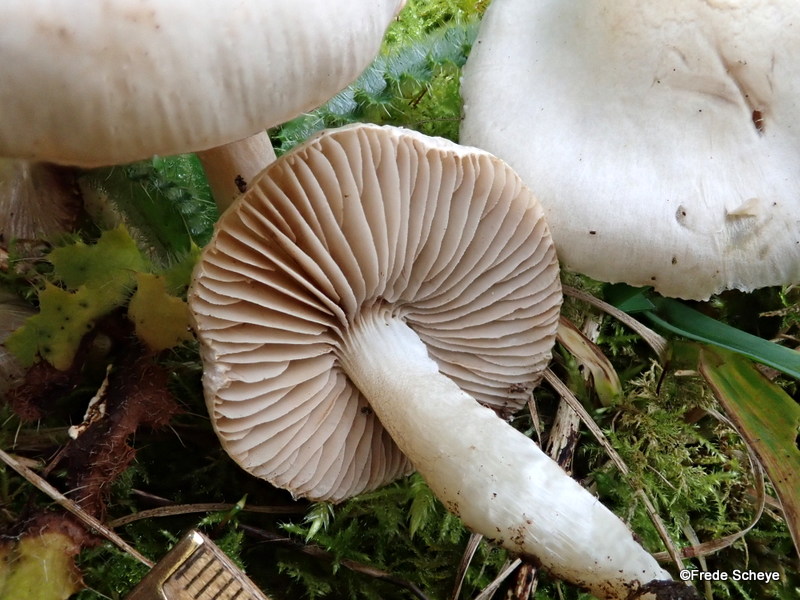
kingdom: Fungi
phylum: Basidiomycota
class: Agaricomycetes
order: Agaricales
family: Inocybaceae
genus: Inocybe
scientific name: Inocybe
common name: almindelig trævlhat
